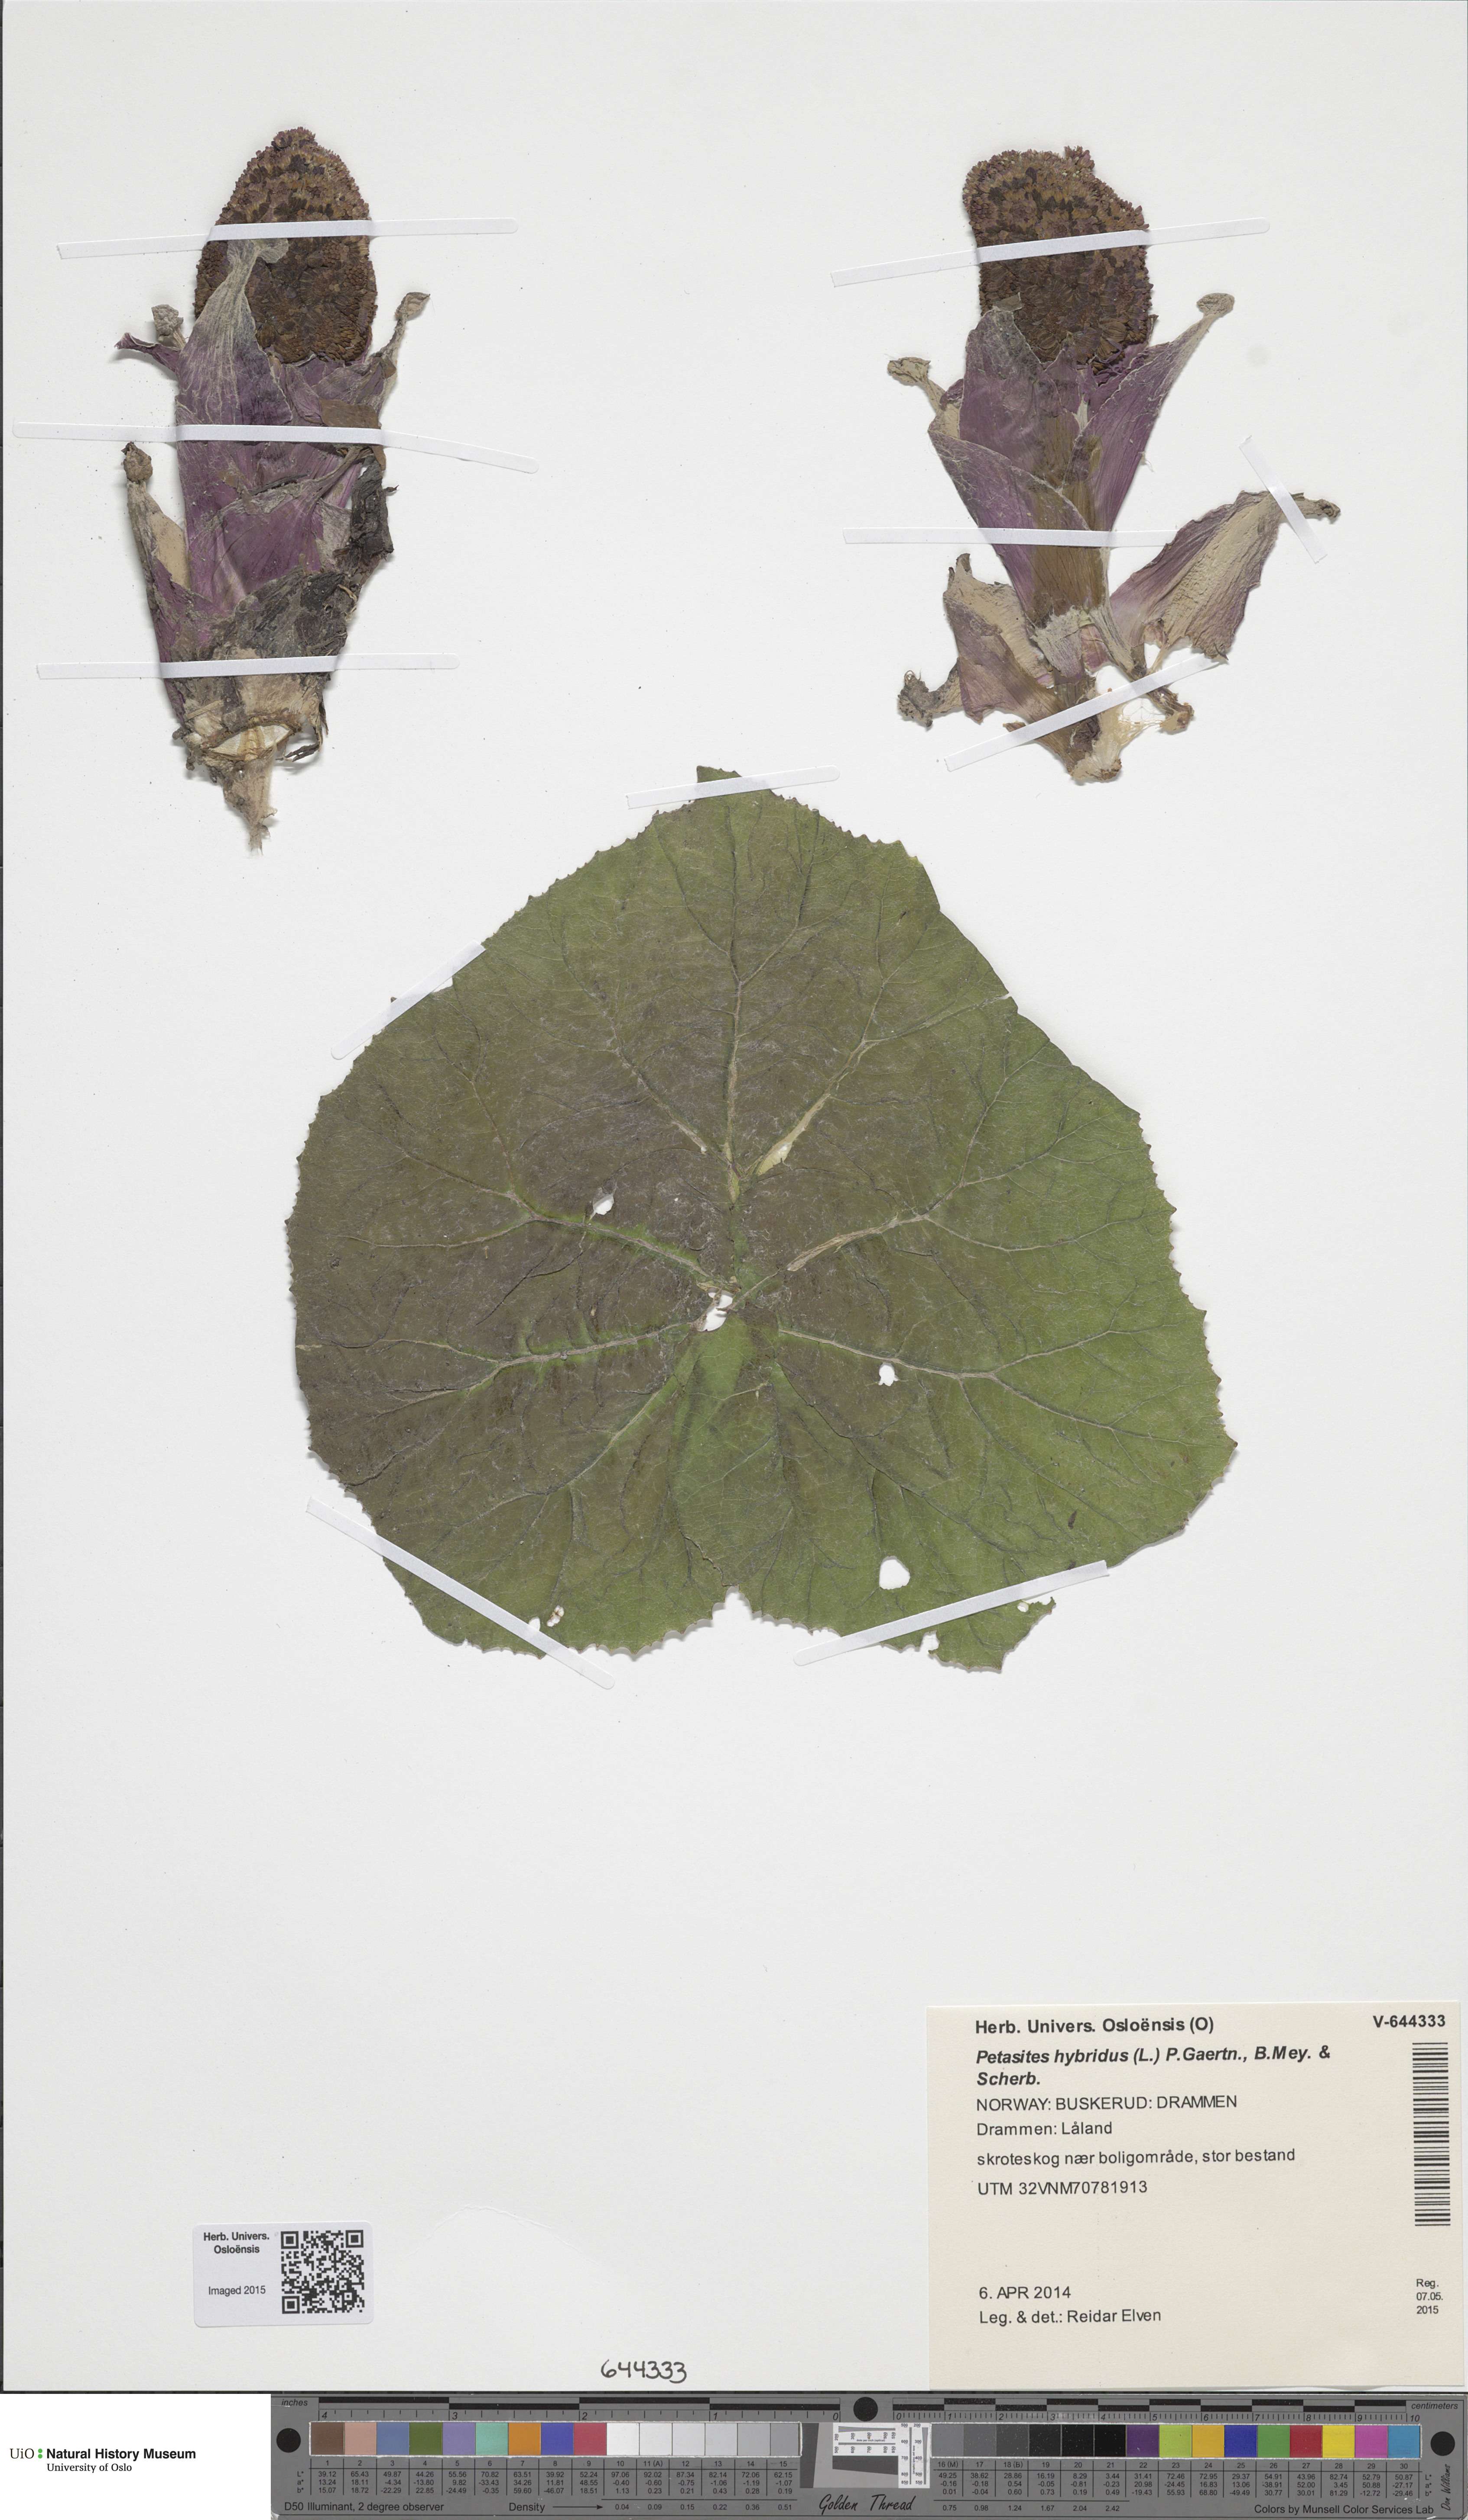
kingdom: Plantae
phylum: Tracheophyta
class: Magnoliopsida
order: Asterales
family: Asteraceae
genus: Petasites
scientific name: Petasites hybridus
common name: Butterbur
